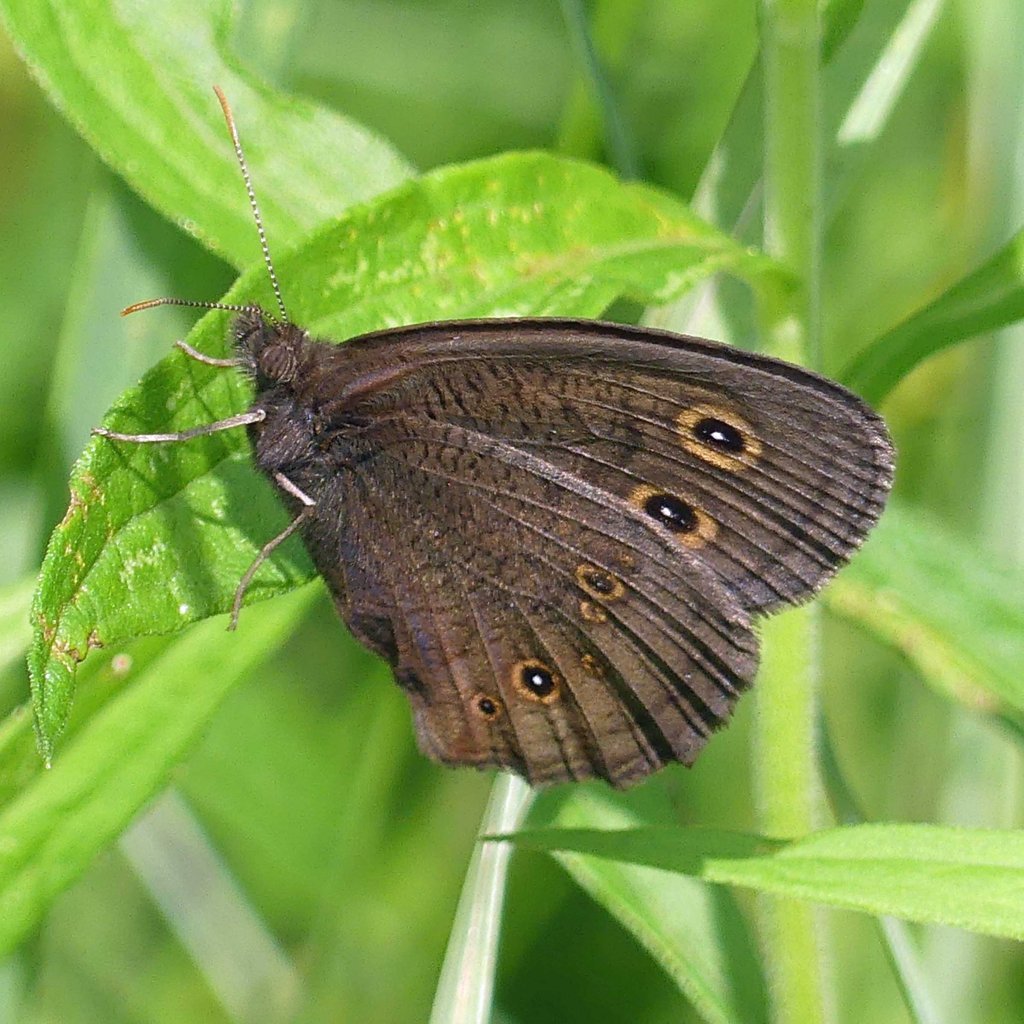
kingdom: Animalia
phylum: Arthropoda
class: Insecta
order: Lepidoptera
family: Nymphalidae
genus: Cercyonis
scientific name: Cercyonis pegala
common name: Common Wood-Nymph
